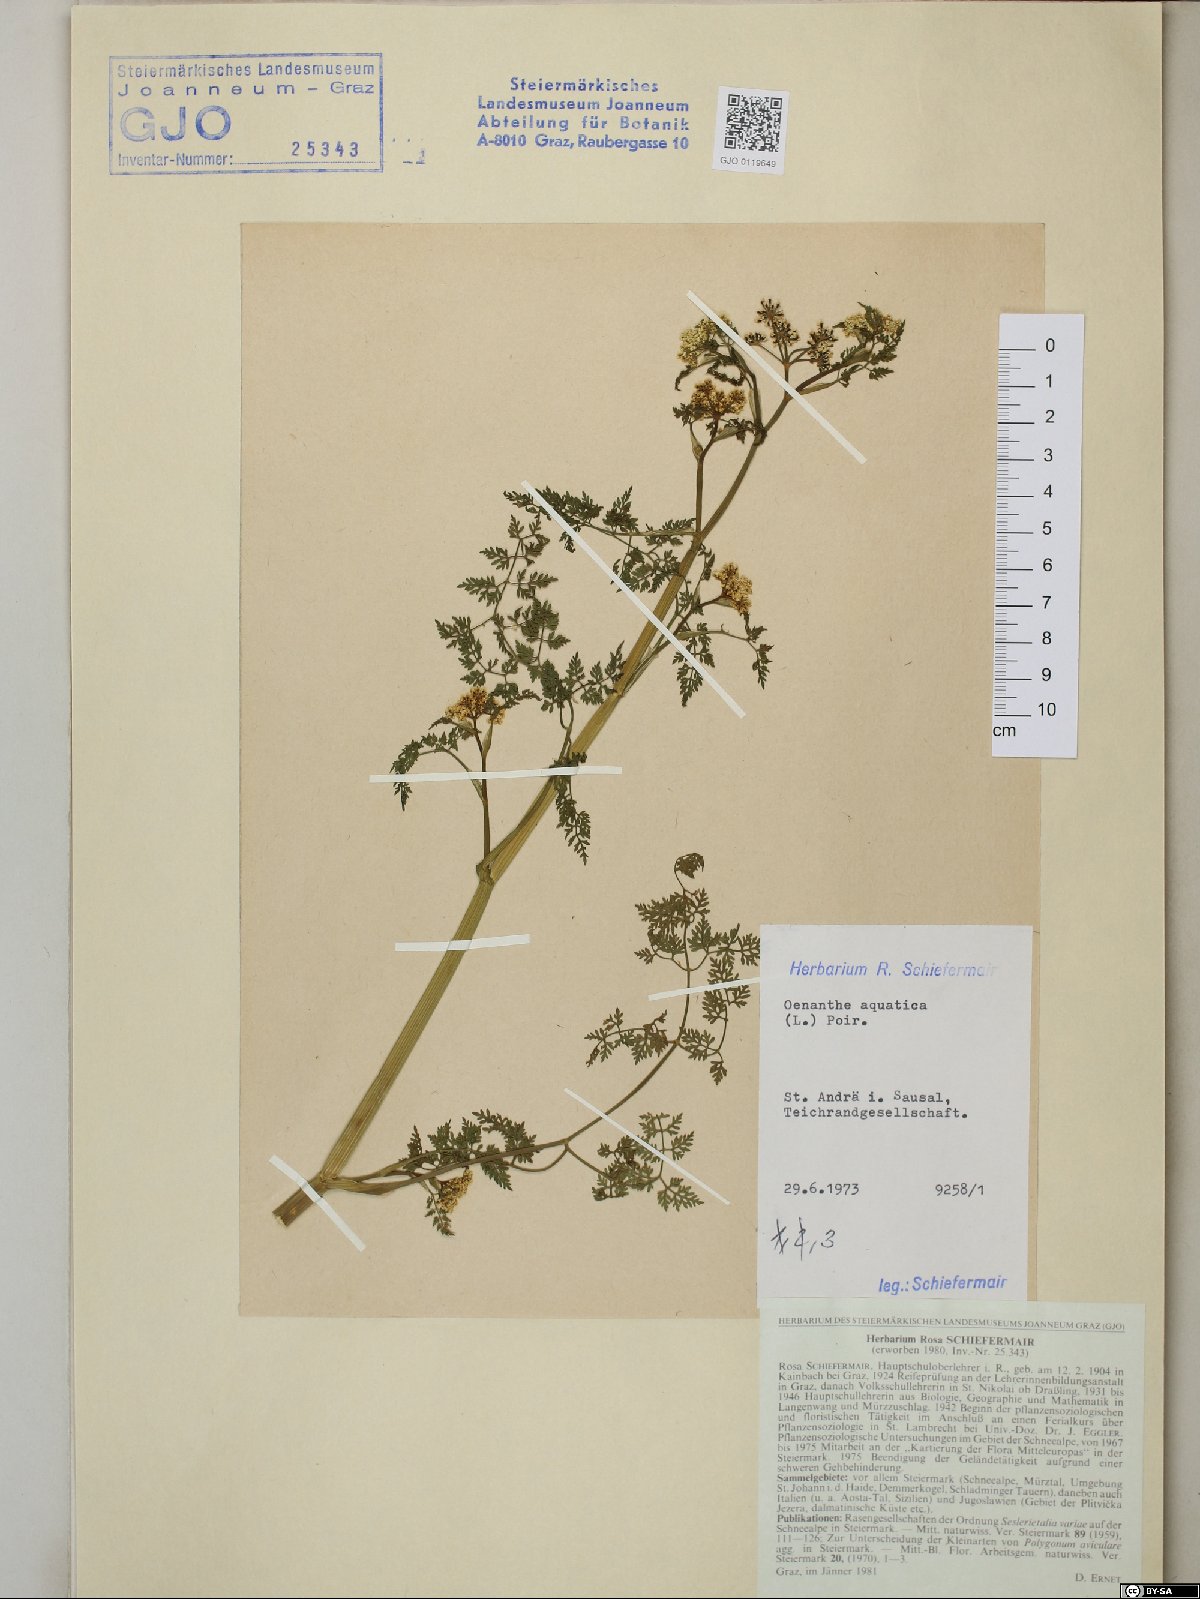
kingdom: Plantae
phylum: Tracheophyta
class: Magnoliopsida
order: Apiales
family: Apiaceae
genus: Oenanthe
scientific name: Oenanthe aquatica
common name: Fine-leaved water-dropwort
